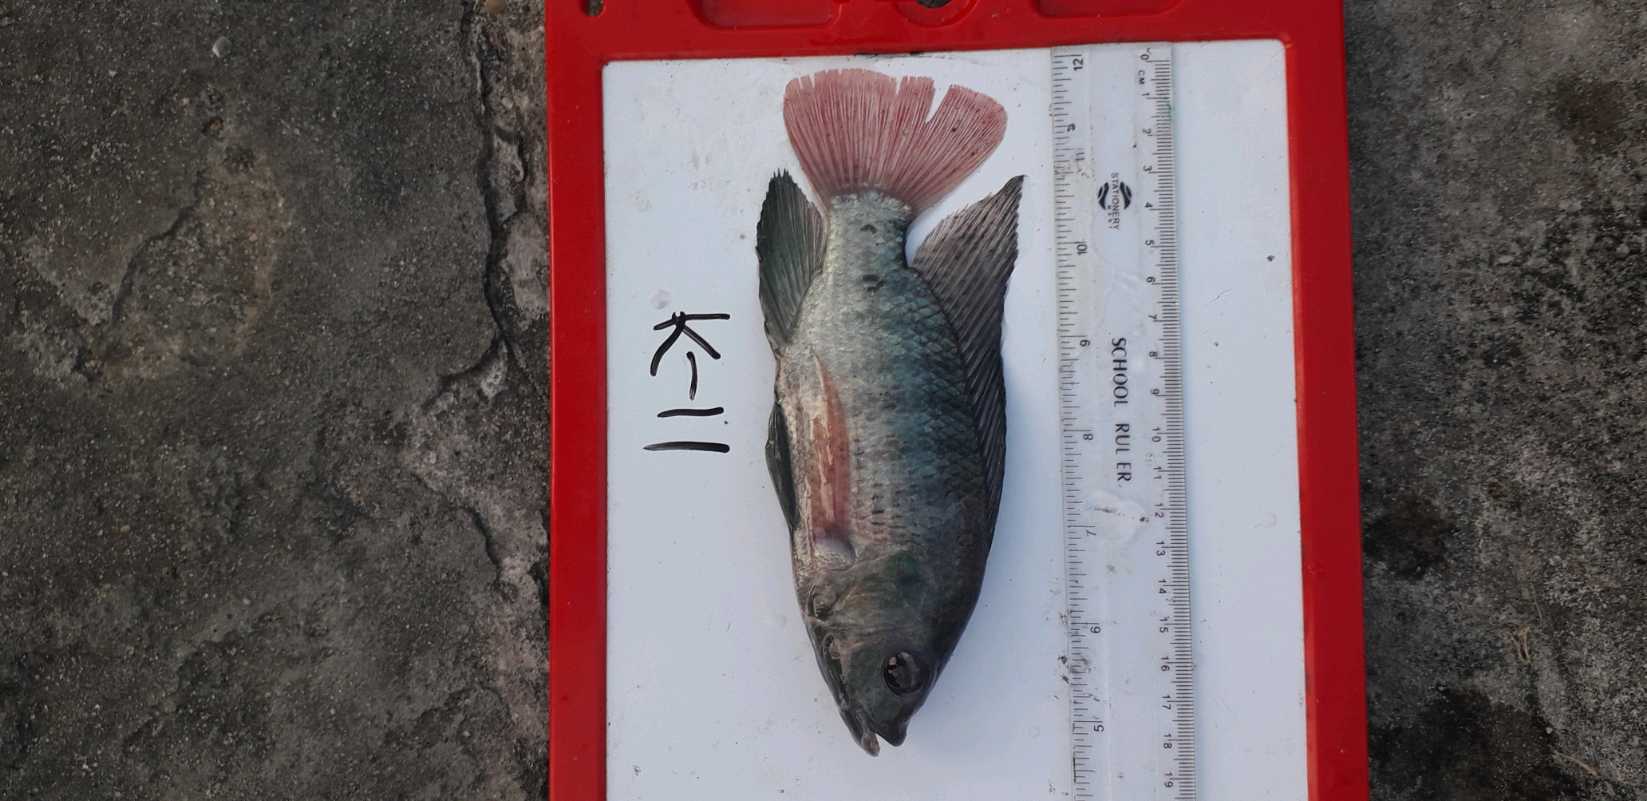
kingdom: Animalia
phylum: Chordata
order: Perciformes
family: Cichlidae
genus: Oreochromis
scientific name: Oreochromis
